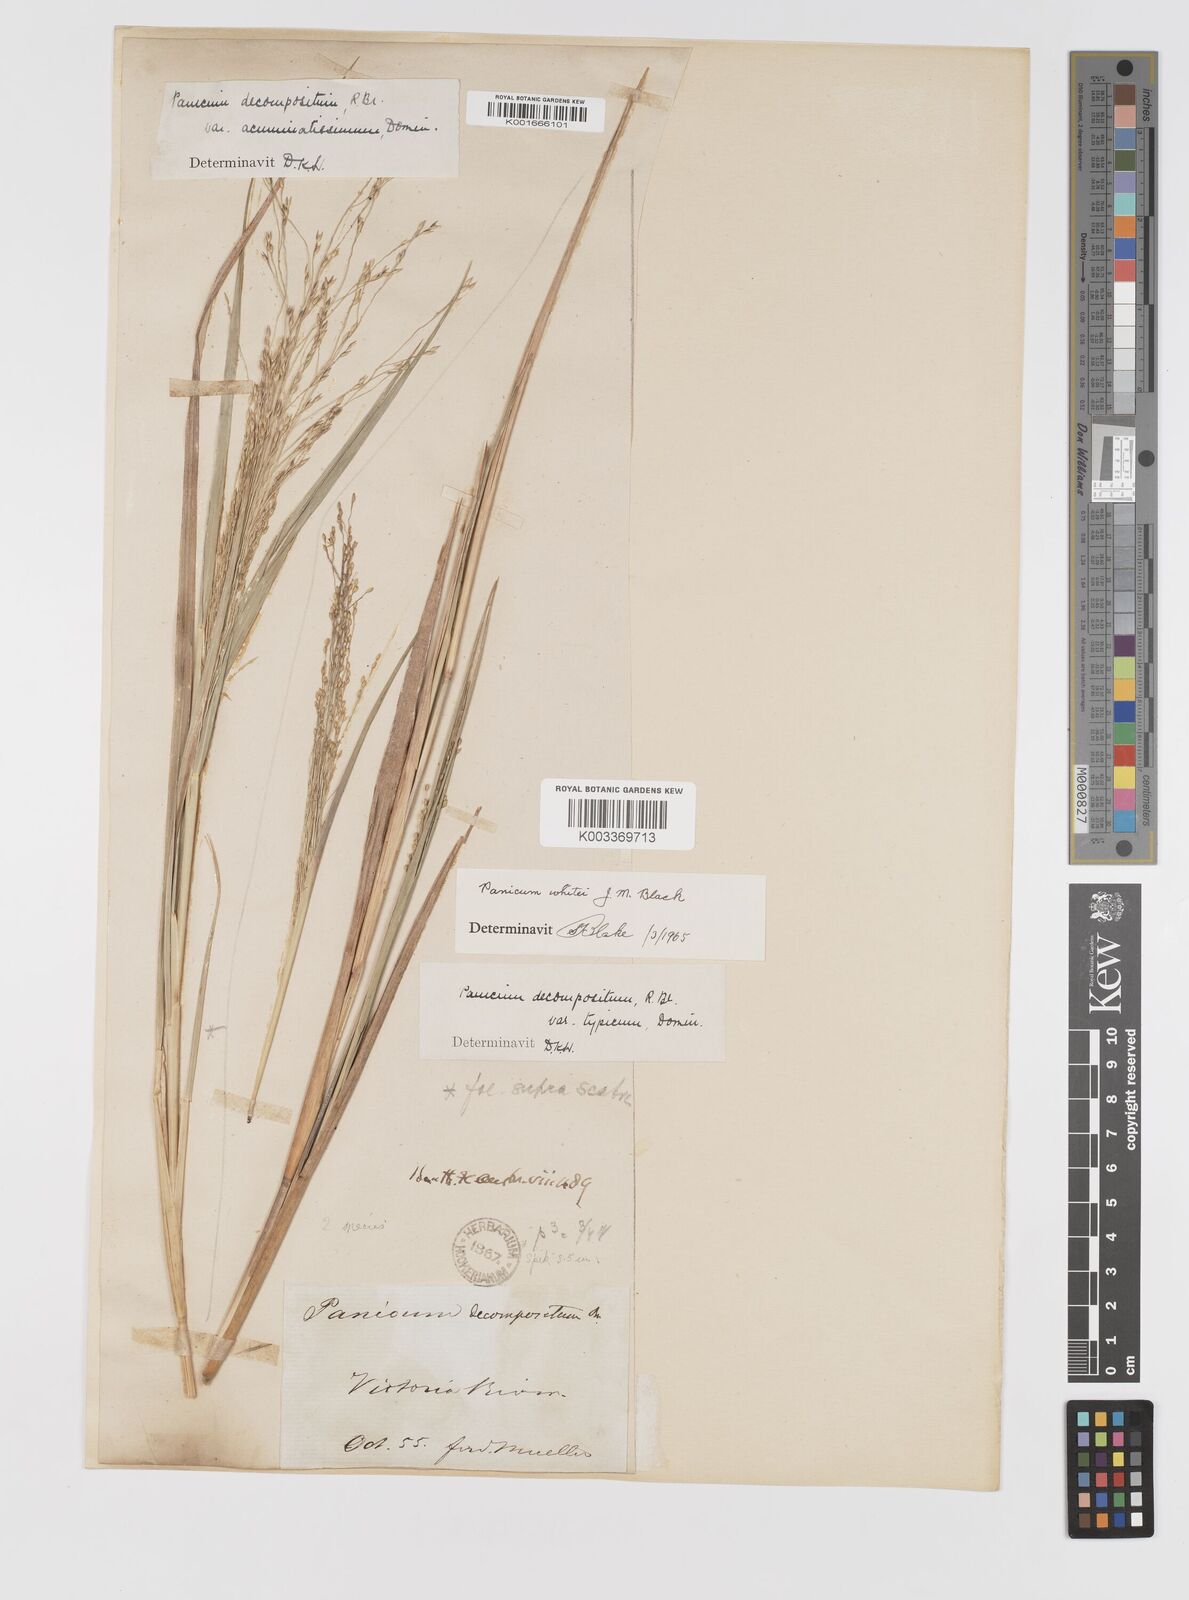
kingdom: Plantae
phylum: Tracheophyta
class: Liliopsida
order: Poales
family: Poaceae
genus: Panicum
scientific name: Panicum latzii
